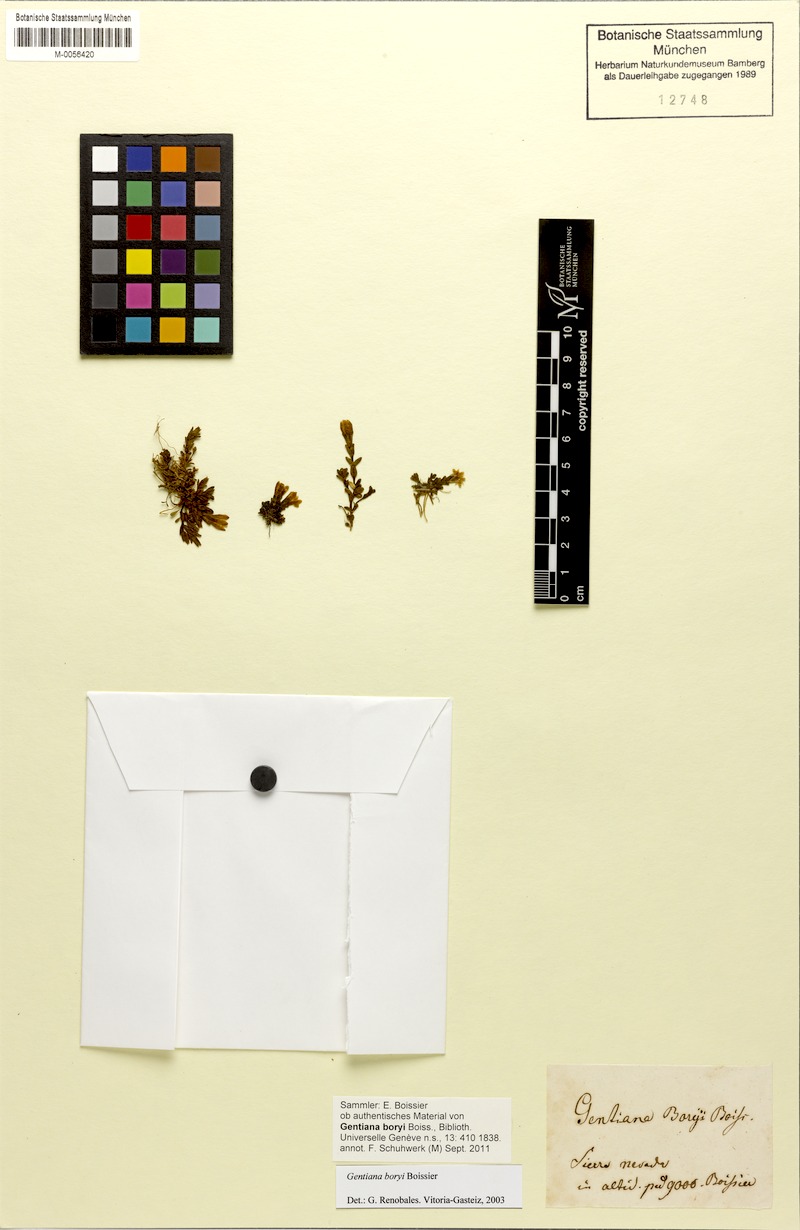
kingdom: Plantae
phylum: Tracheophyta
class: Magnoliopsida
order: Gentianales
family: Gentianaceae
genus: Gentiana
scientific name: Gentiana boryi
